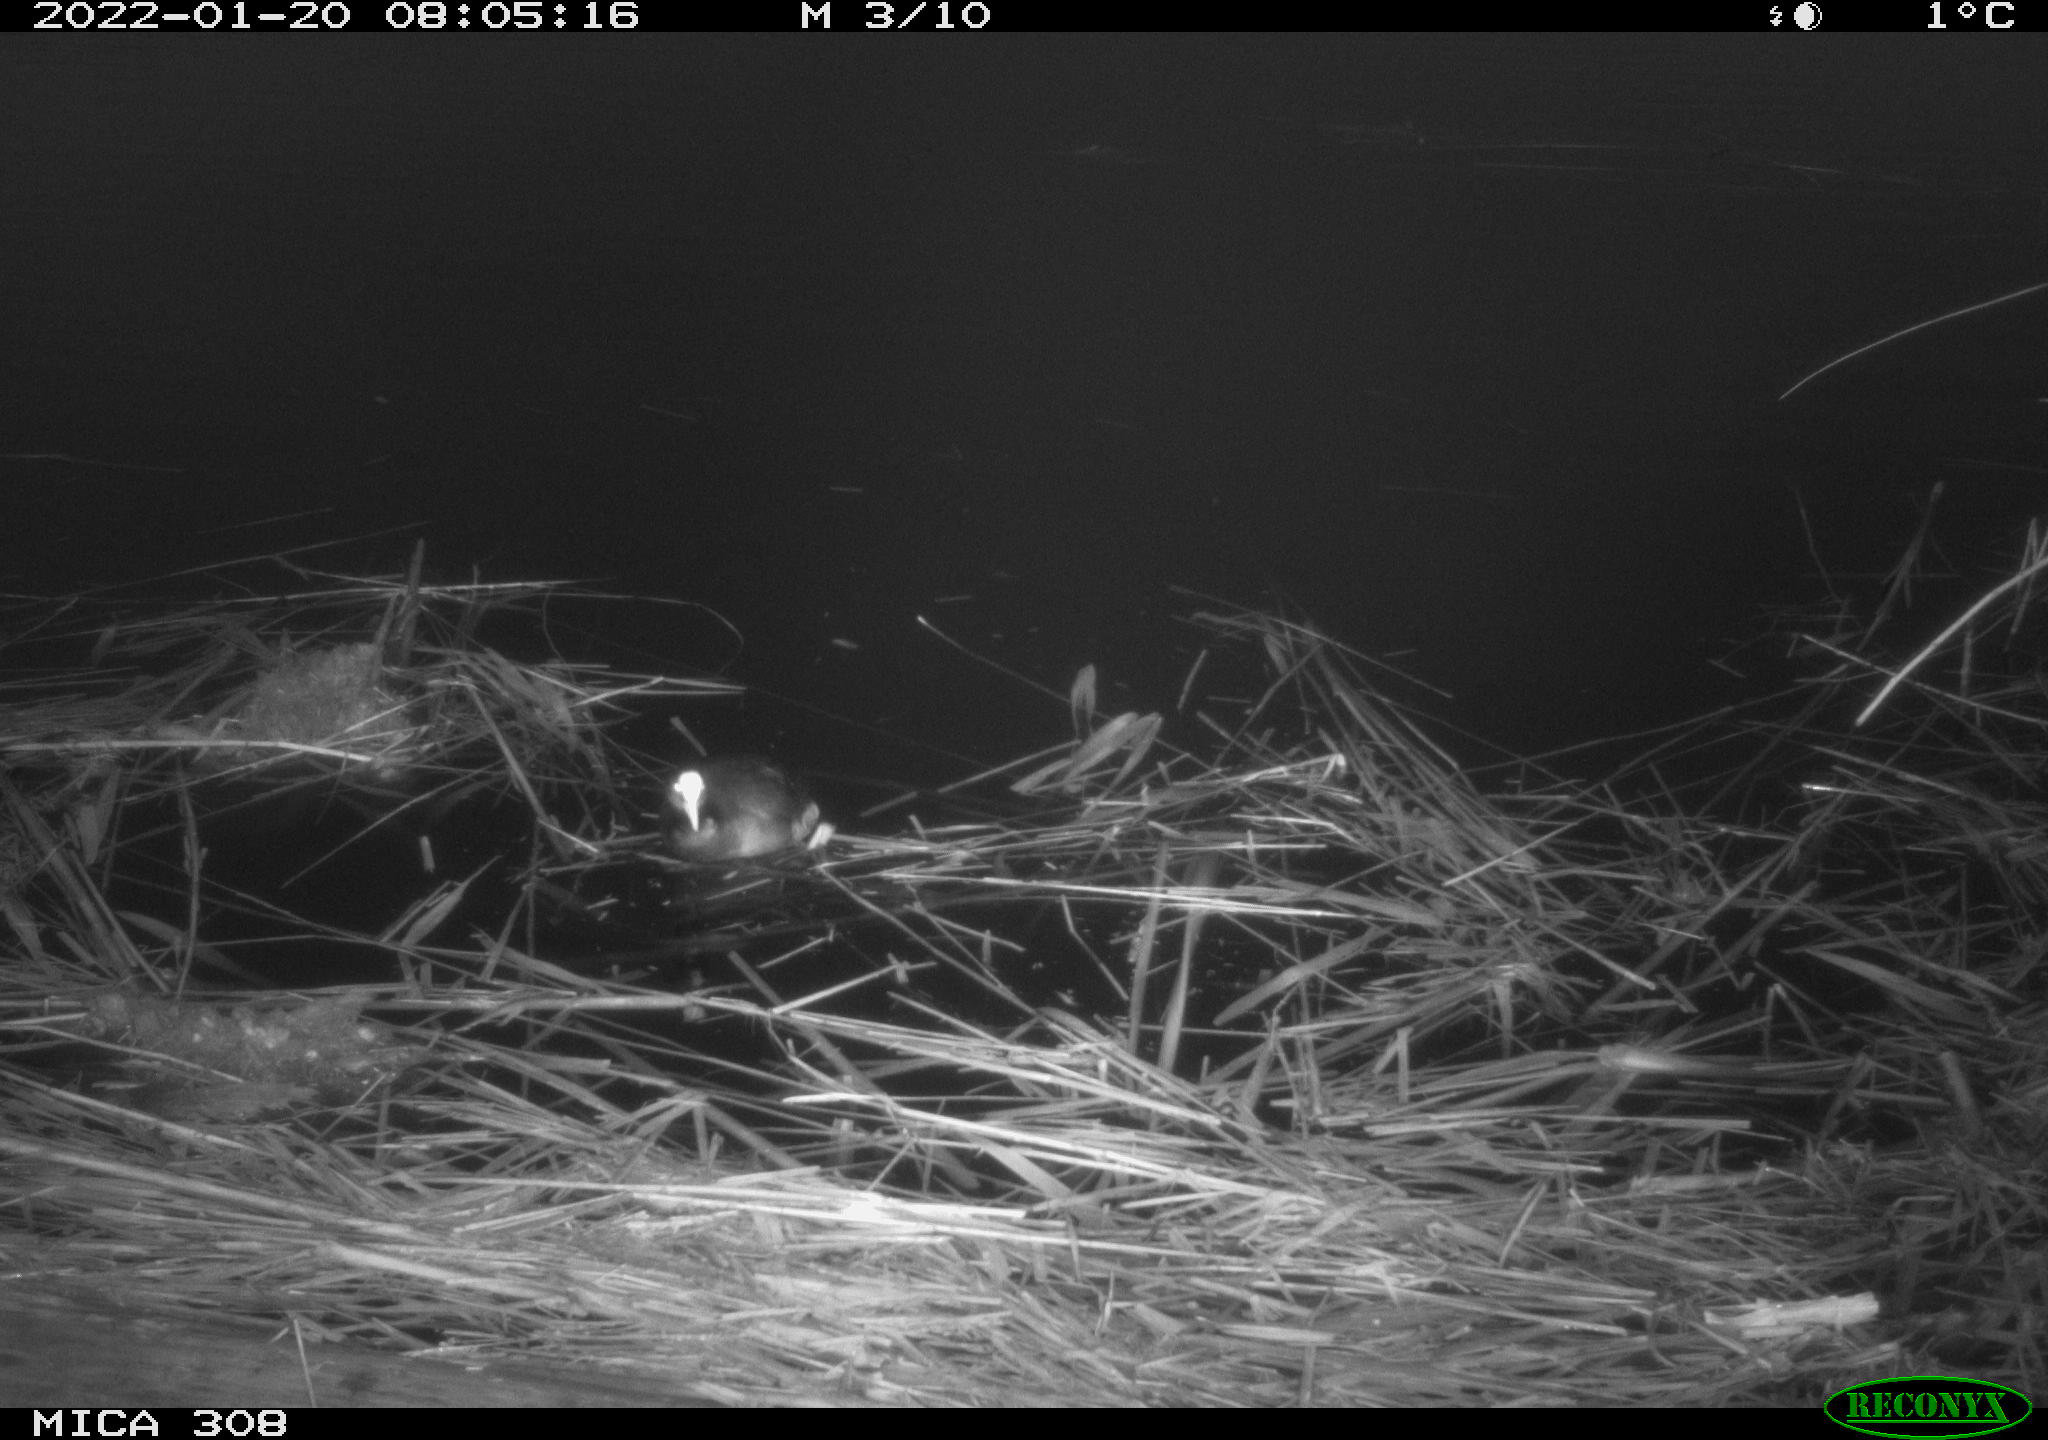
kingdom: Animalia
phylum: Chordata
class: Aves
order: Anseriformes
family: Anatidae
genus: Anas
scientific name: Anas
